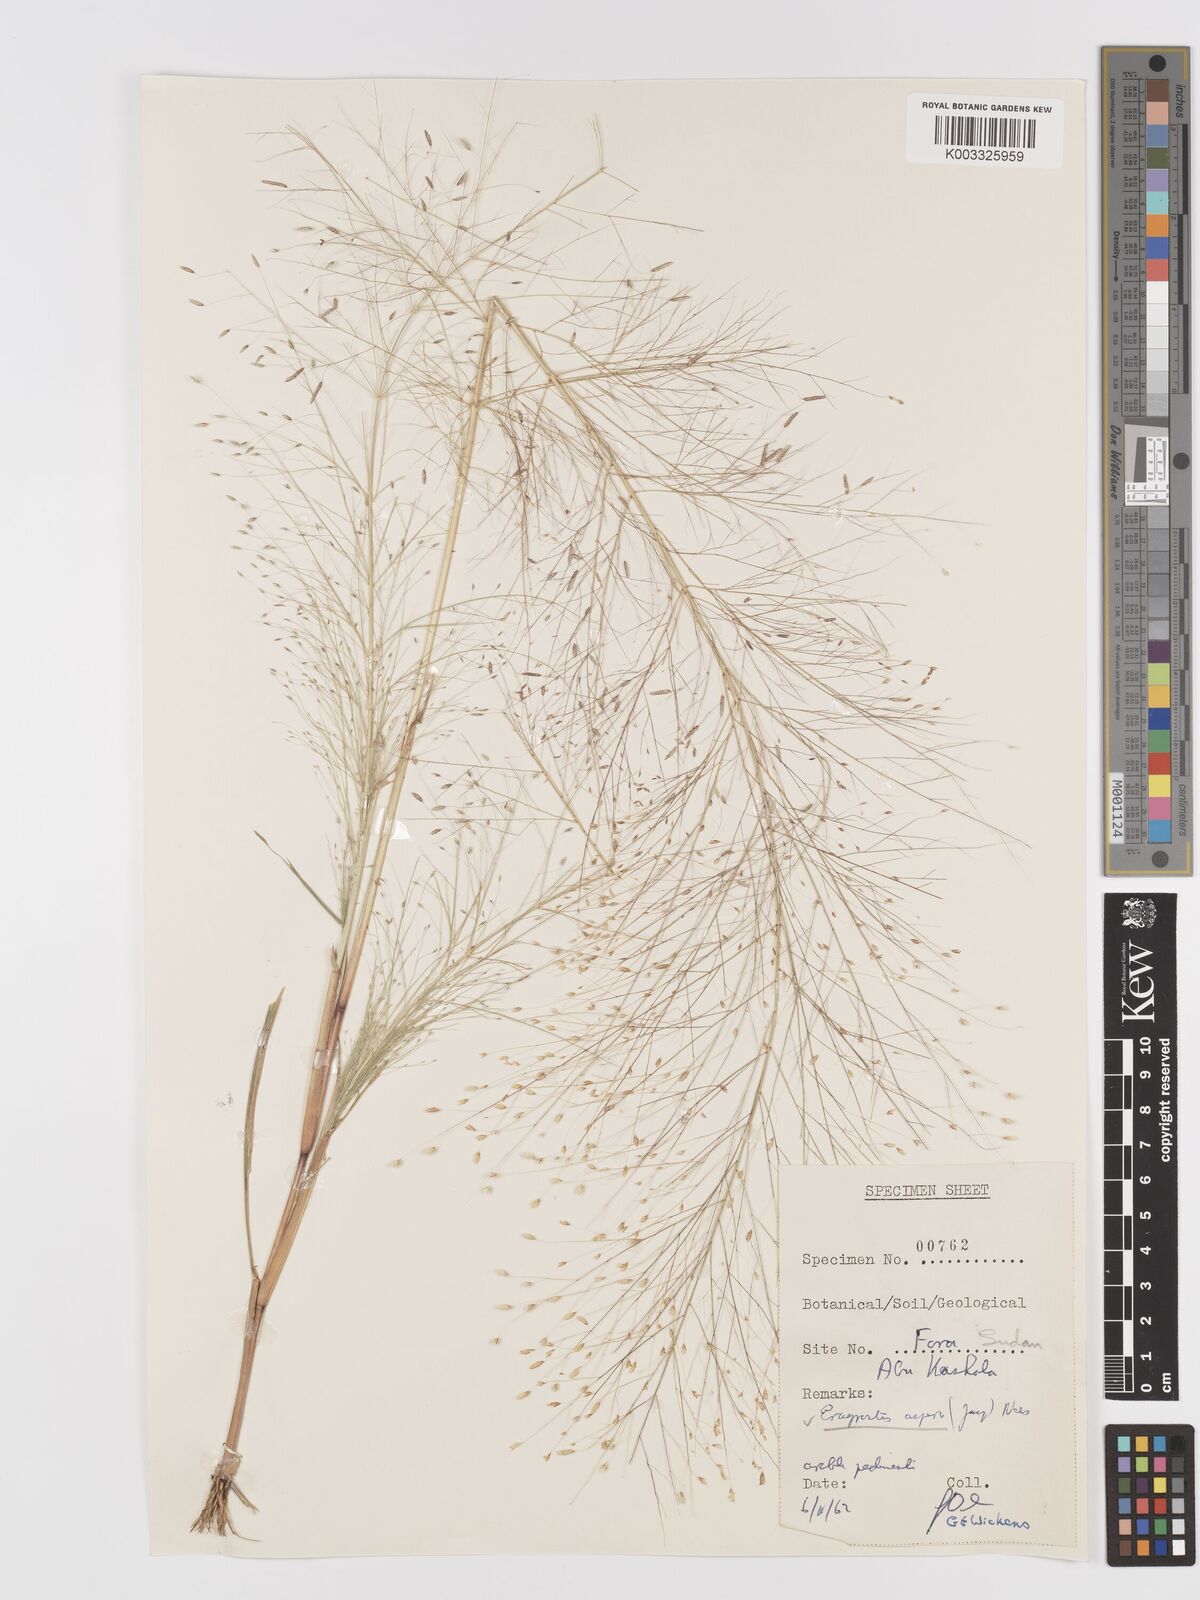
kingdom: Plantae
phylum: Tracheophyta
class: Liliopsida
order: Poales
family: Poaceae
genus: Eragrostis
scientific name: Eragrostis aspera
